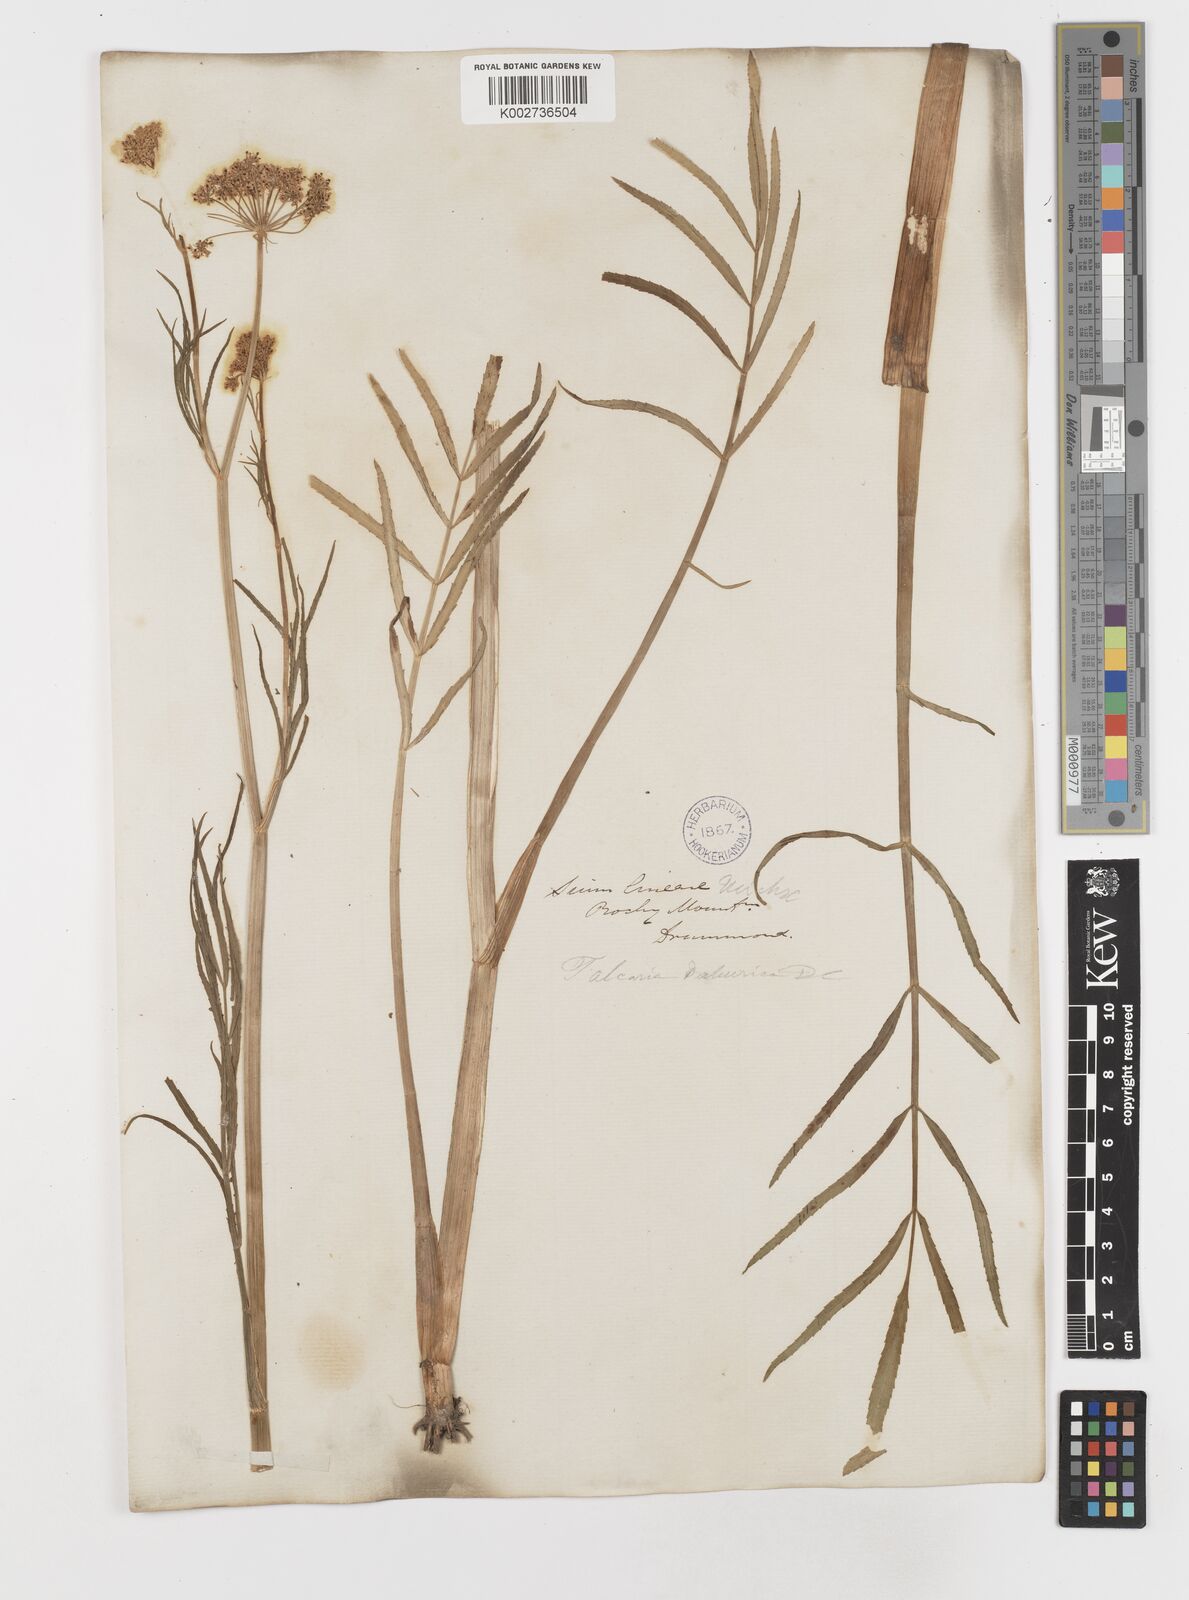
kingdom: Plantae
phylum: Tracheophyta
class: Magnoliopsida
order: Apiales
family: Apiaceae
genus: Sium
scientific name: Sium suave
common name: Hemlock water-parsnip
